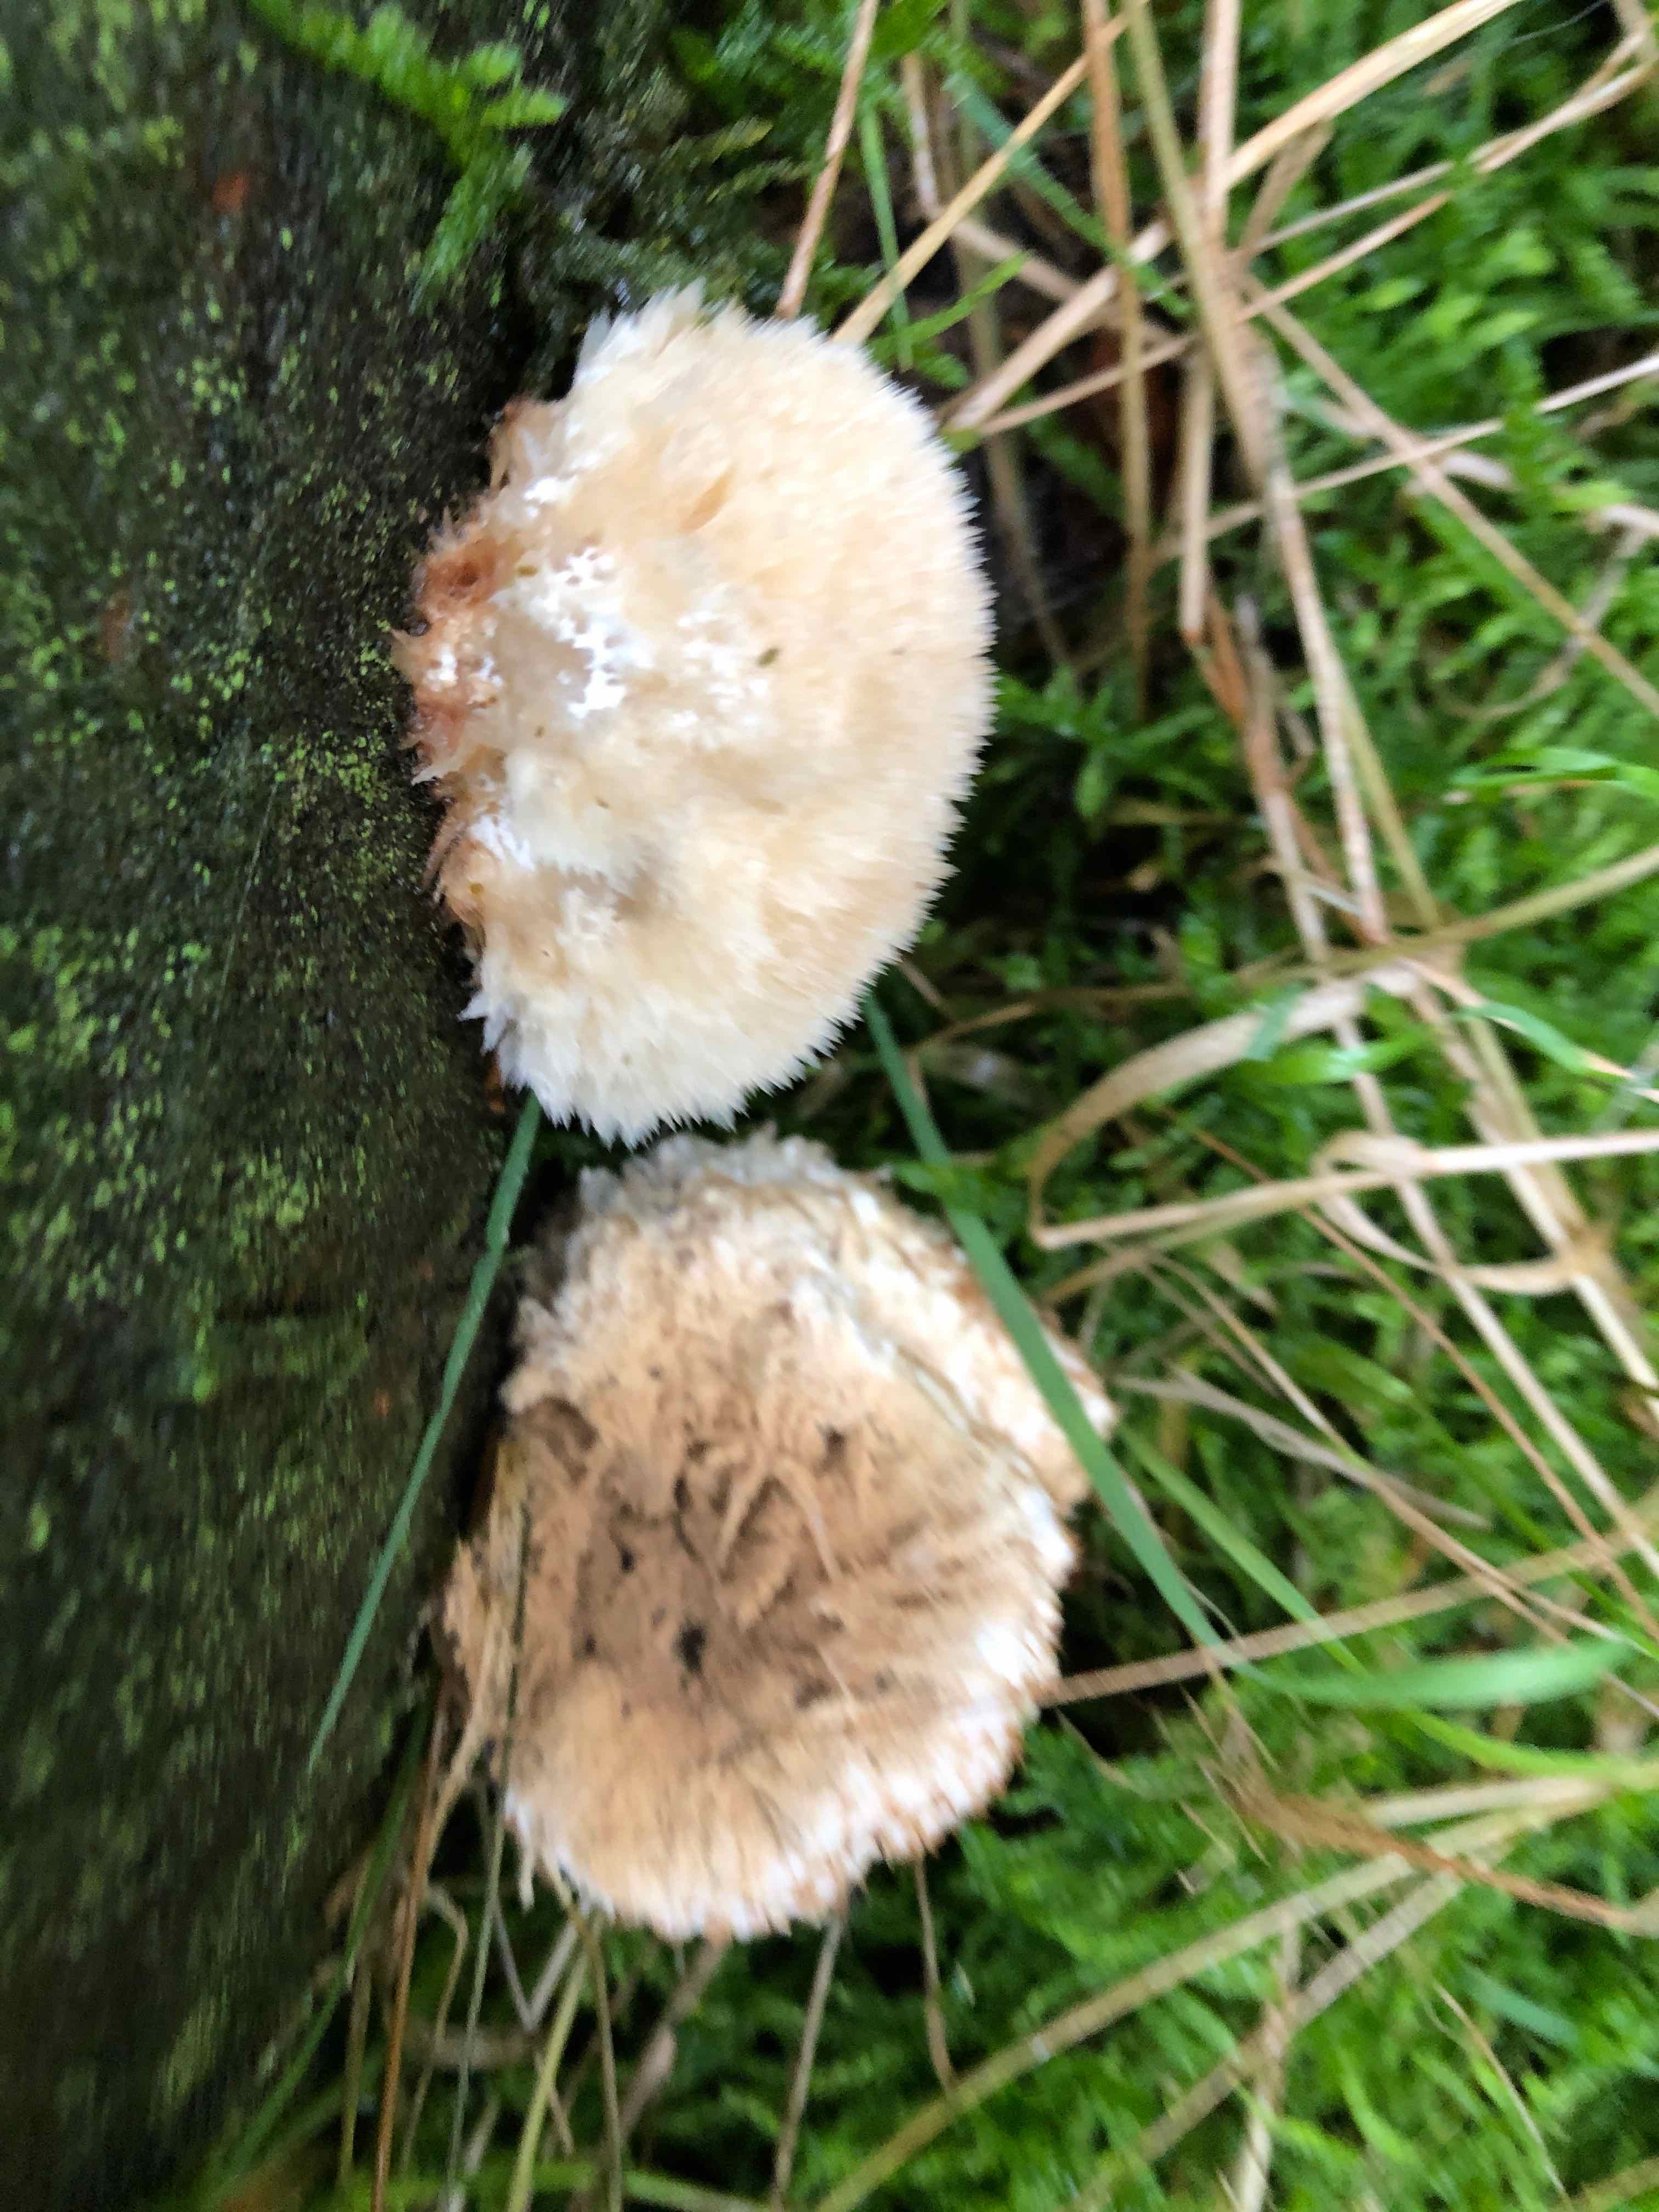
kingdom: Fungi
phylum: Basidiomycota
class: Agaricomycetes
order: Polyporales
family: Dacryobolaceae
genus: Postia
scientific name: Postia ptychogaster
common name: støvende kødporesvamp
